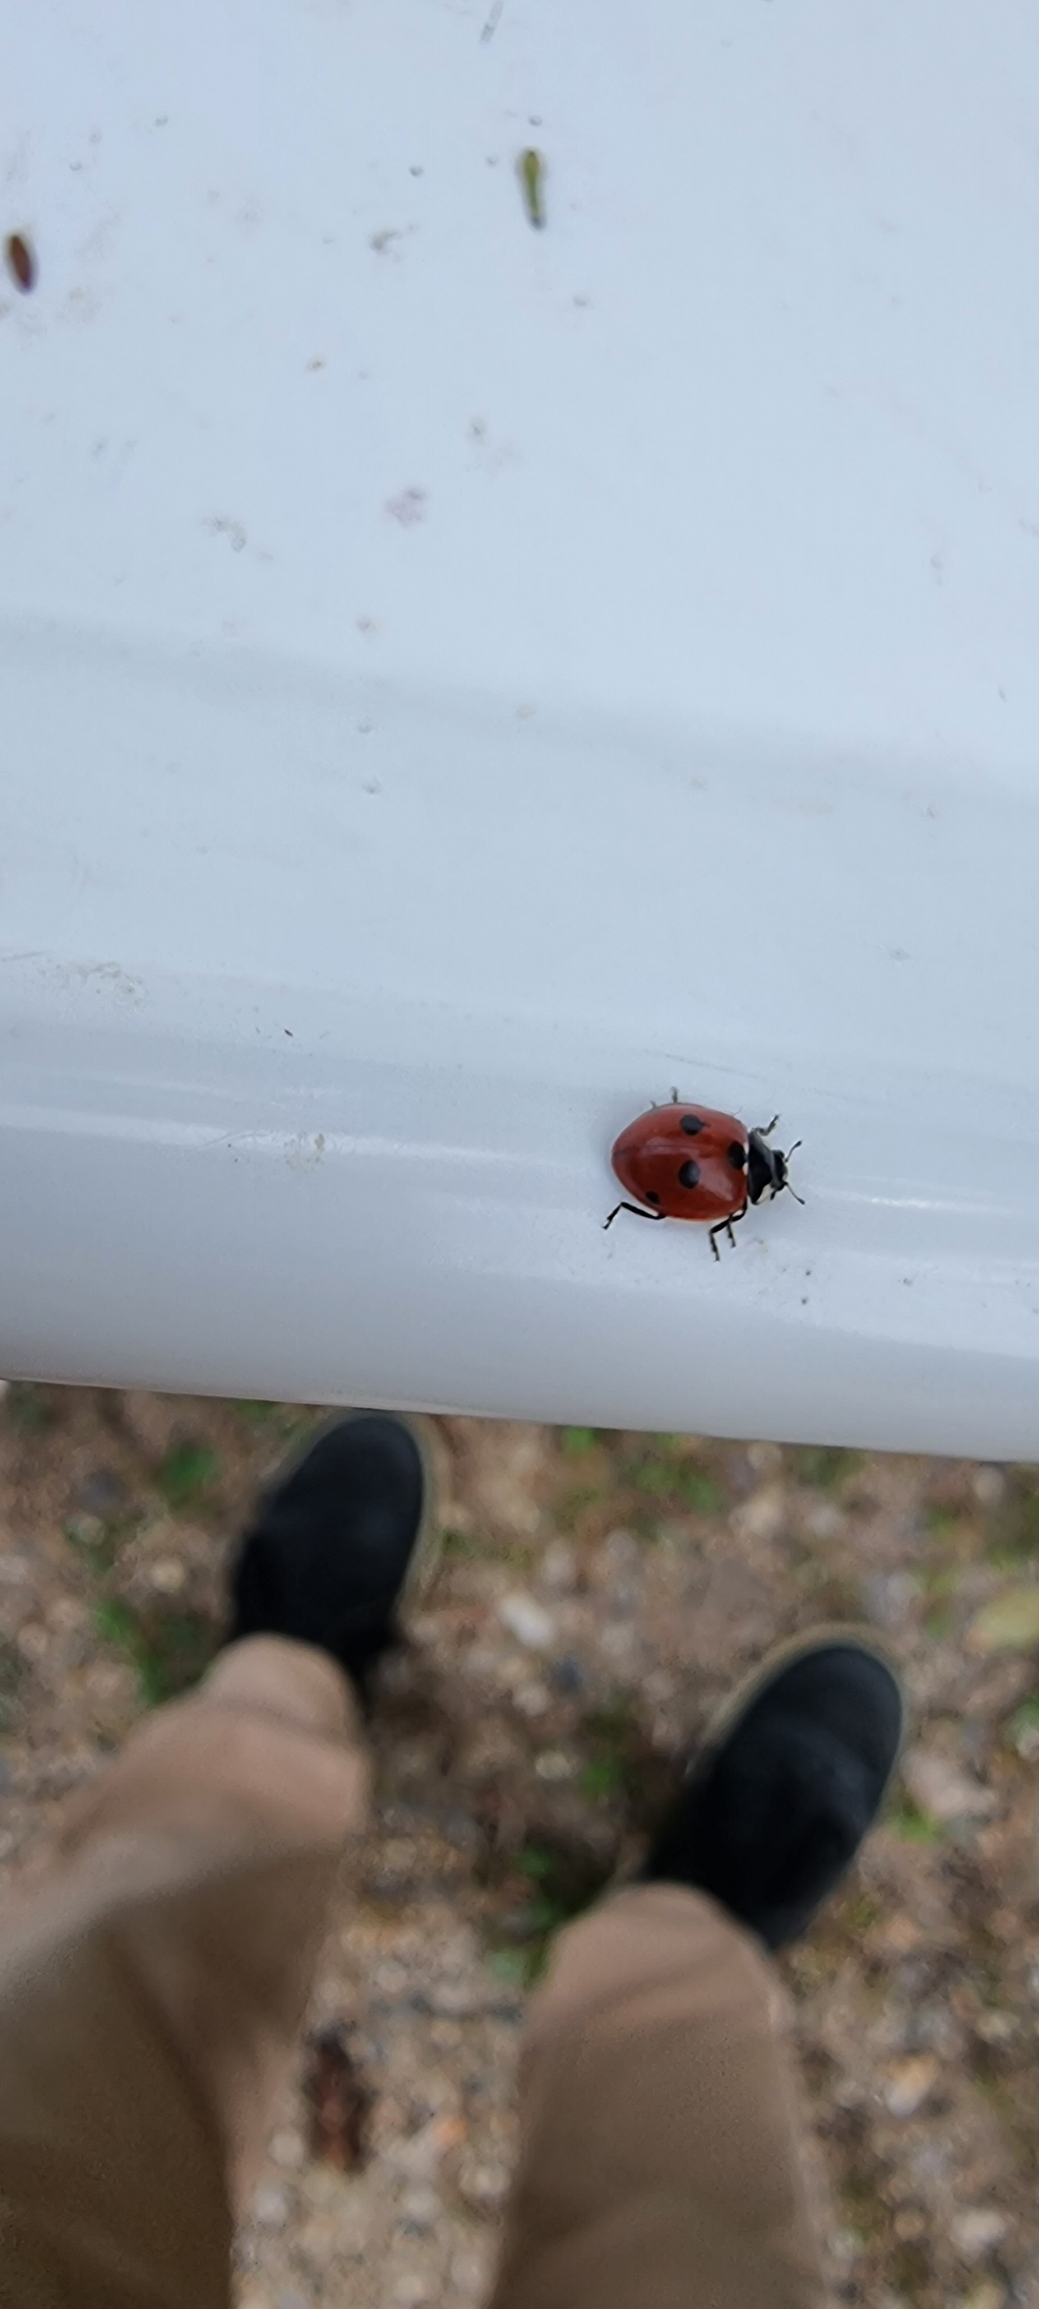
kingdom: Animalia
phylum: Arthropoda
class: Insecta
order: Coleoptera
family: Coccinellidae
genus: Coccinella
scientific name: Coccinella quinquepunctata
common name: Femplettet mariehøne
